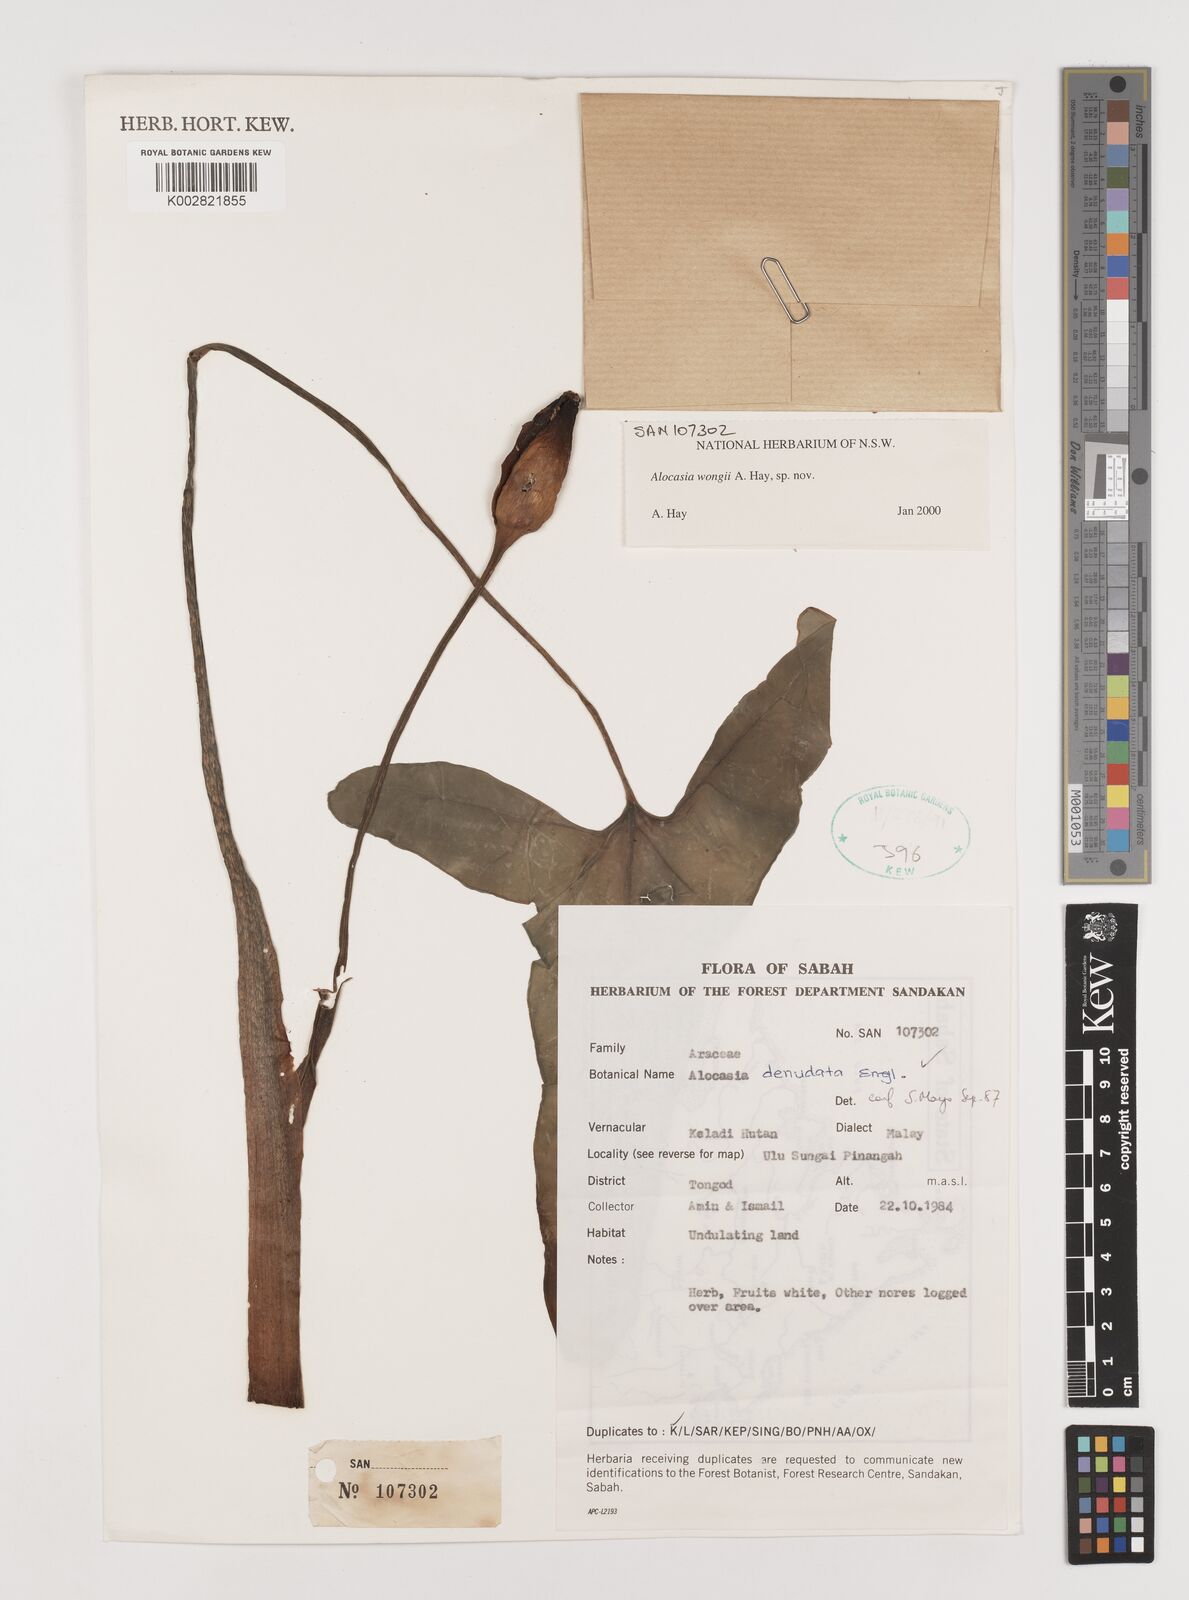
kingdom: Plantae
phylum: Tracheophyta
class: Liliopsida
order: Alismatales
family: Araceae
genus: Alocasia
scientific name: Alocasia wongii
